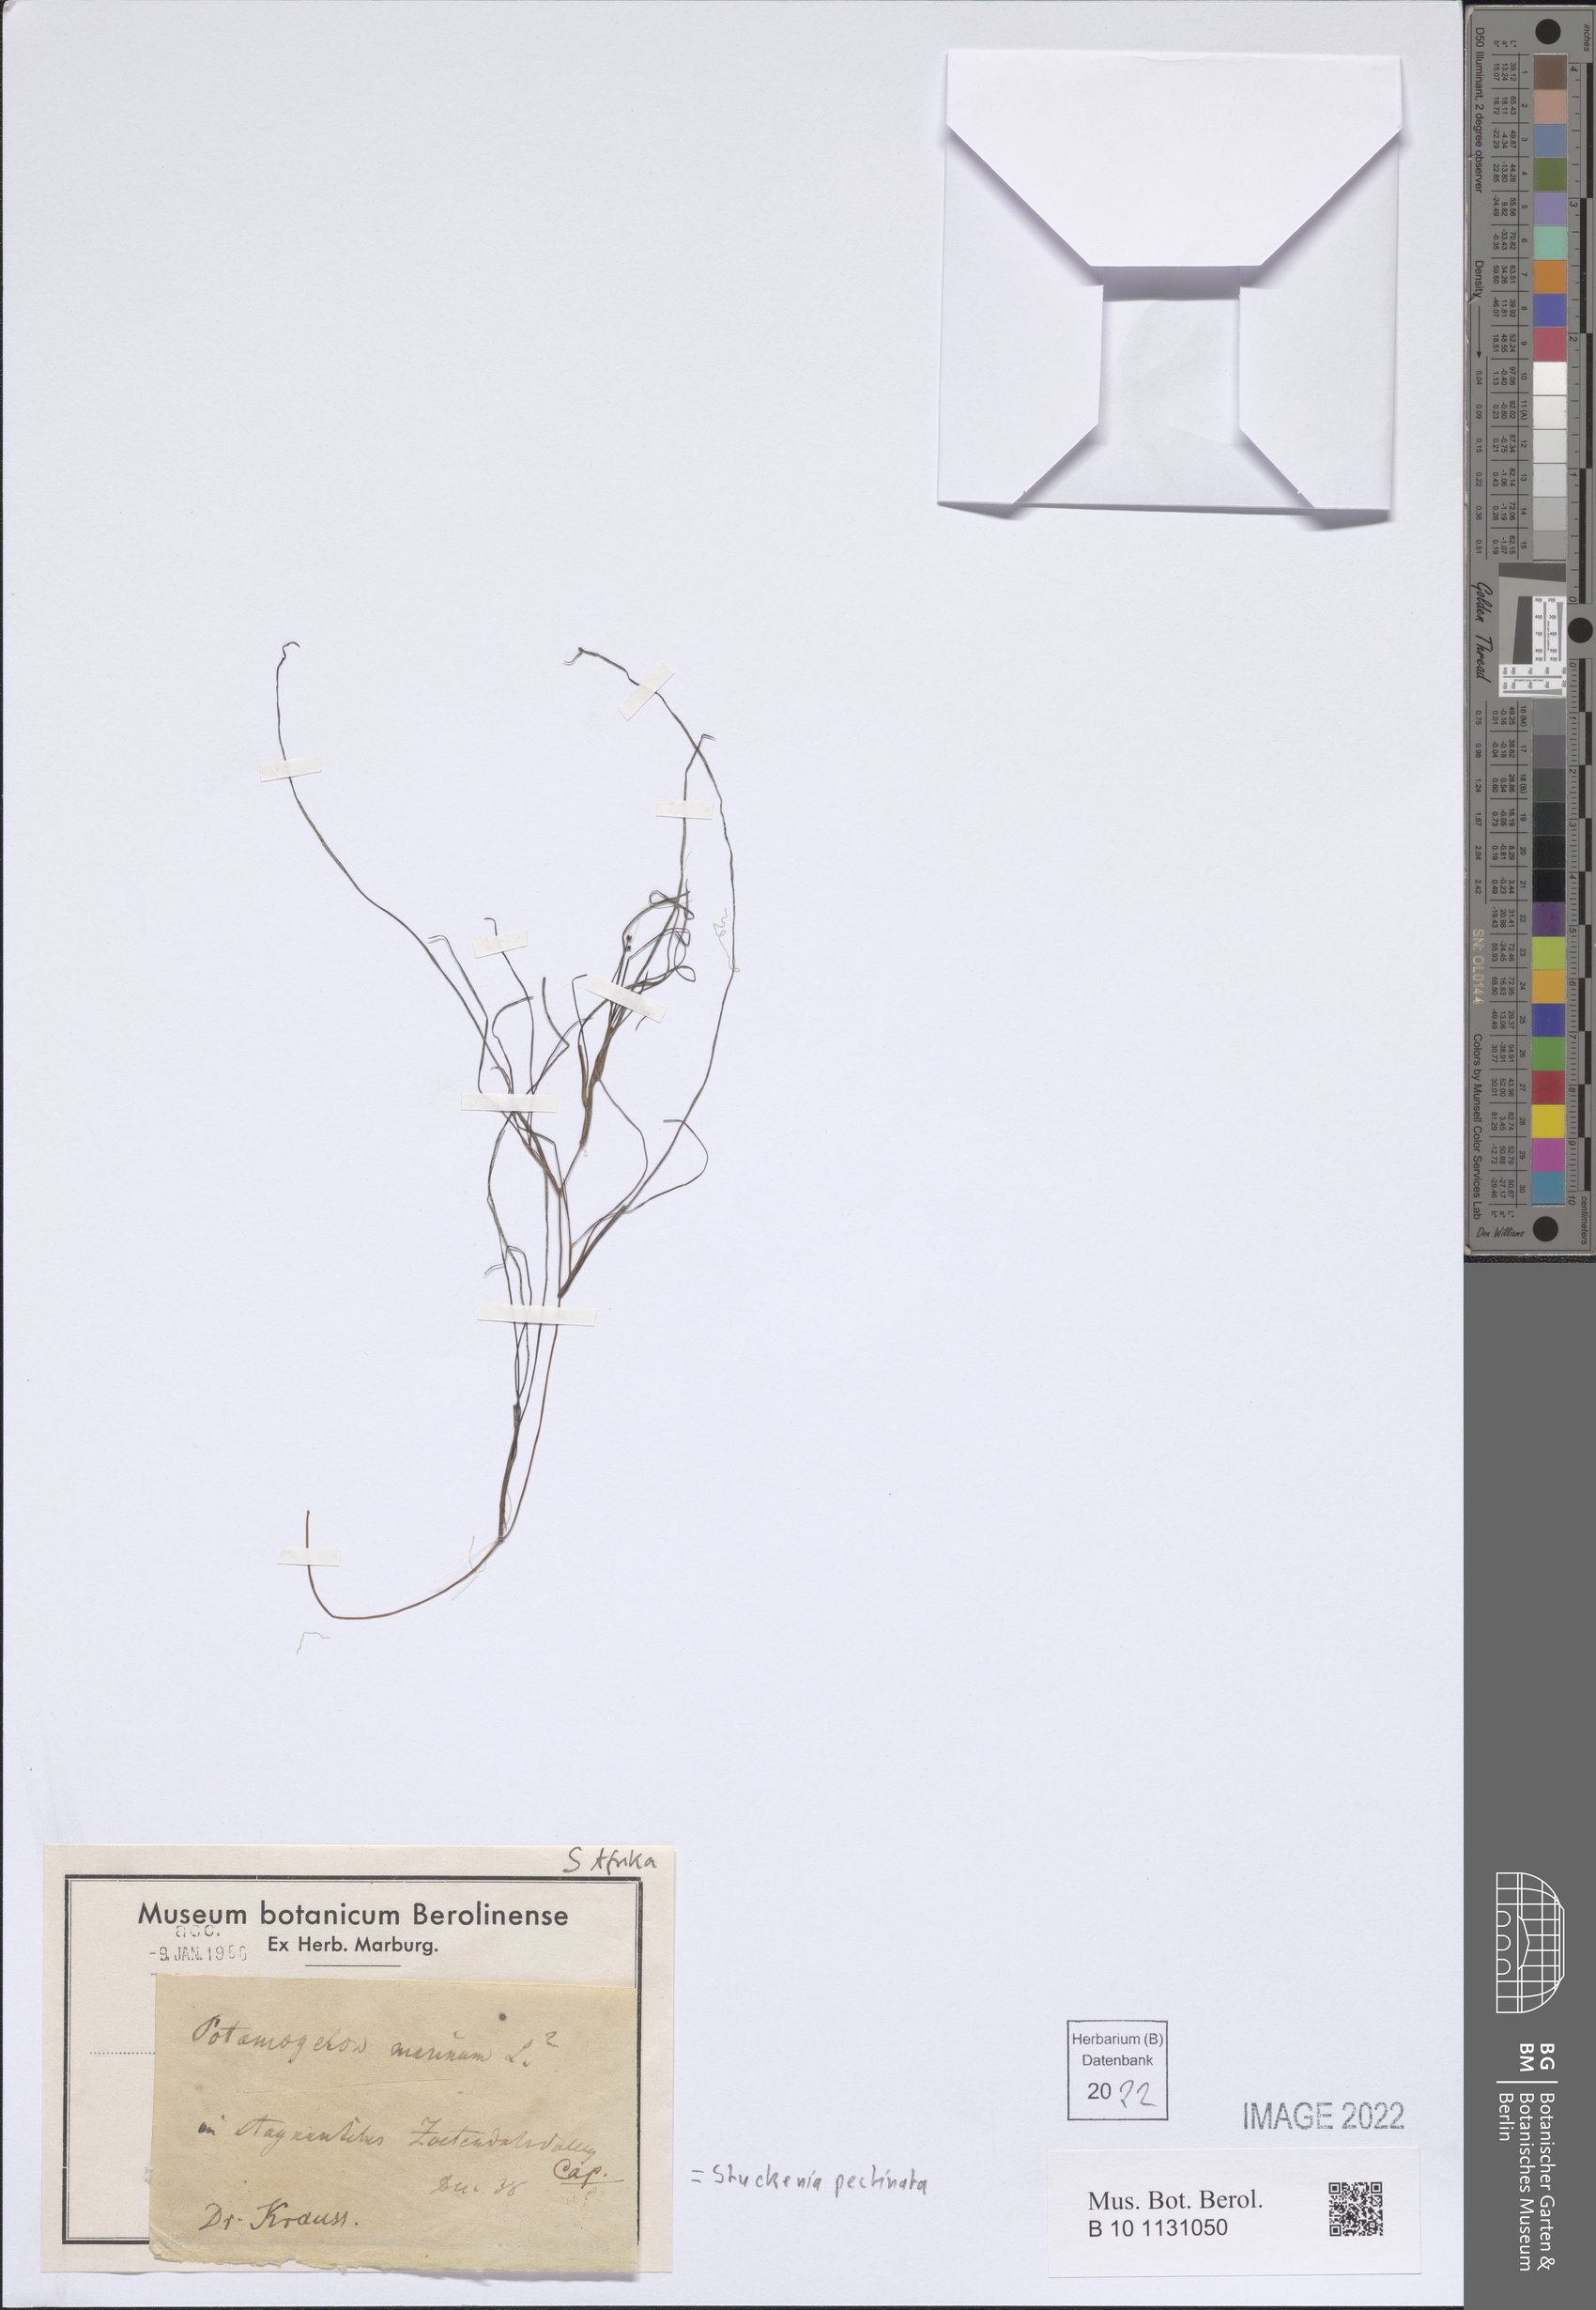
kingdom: Plantae
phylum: Tracheophyta
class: Liliopsida
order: Alismatales
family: Potamogetonaceae
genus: Stuckenia
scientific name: Stuckenia pectinata
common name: Sago pondweed
